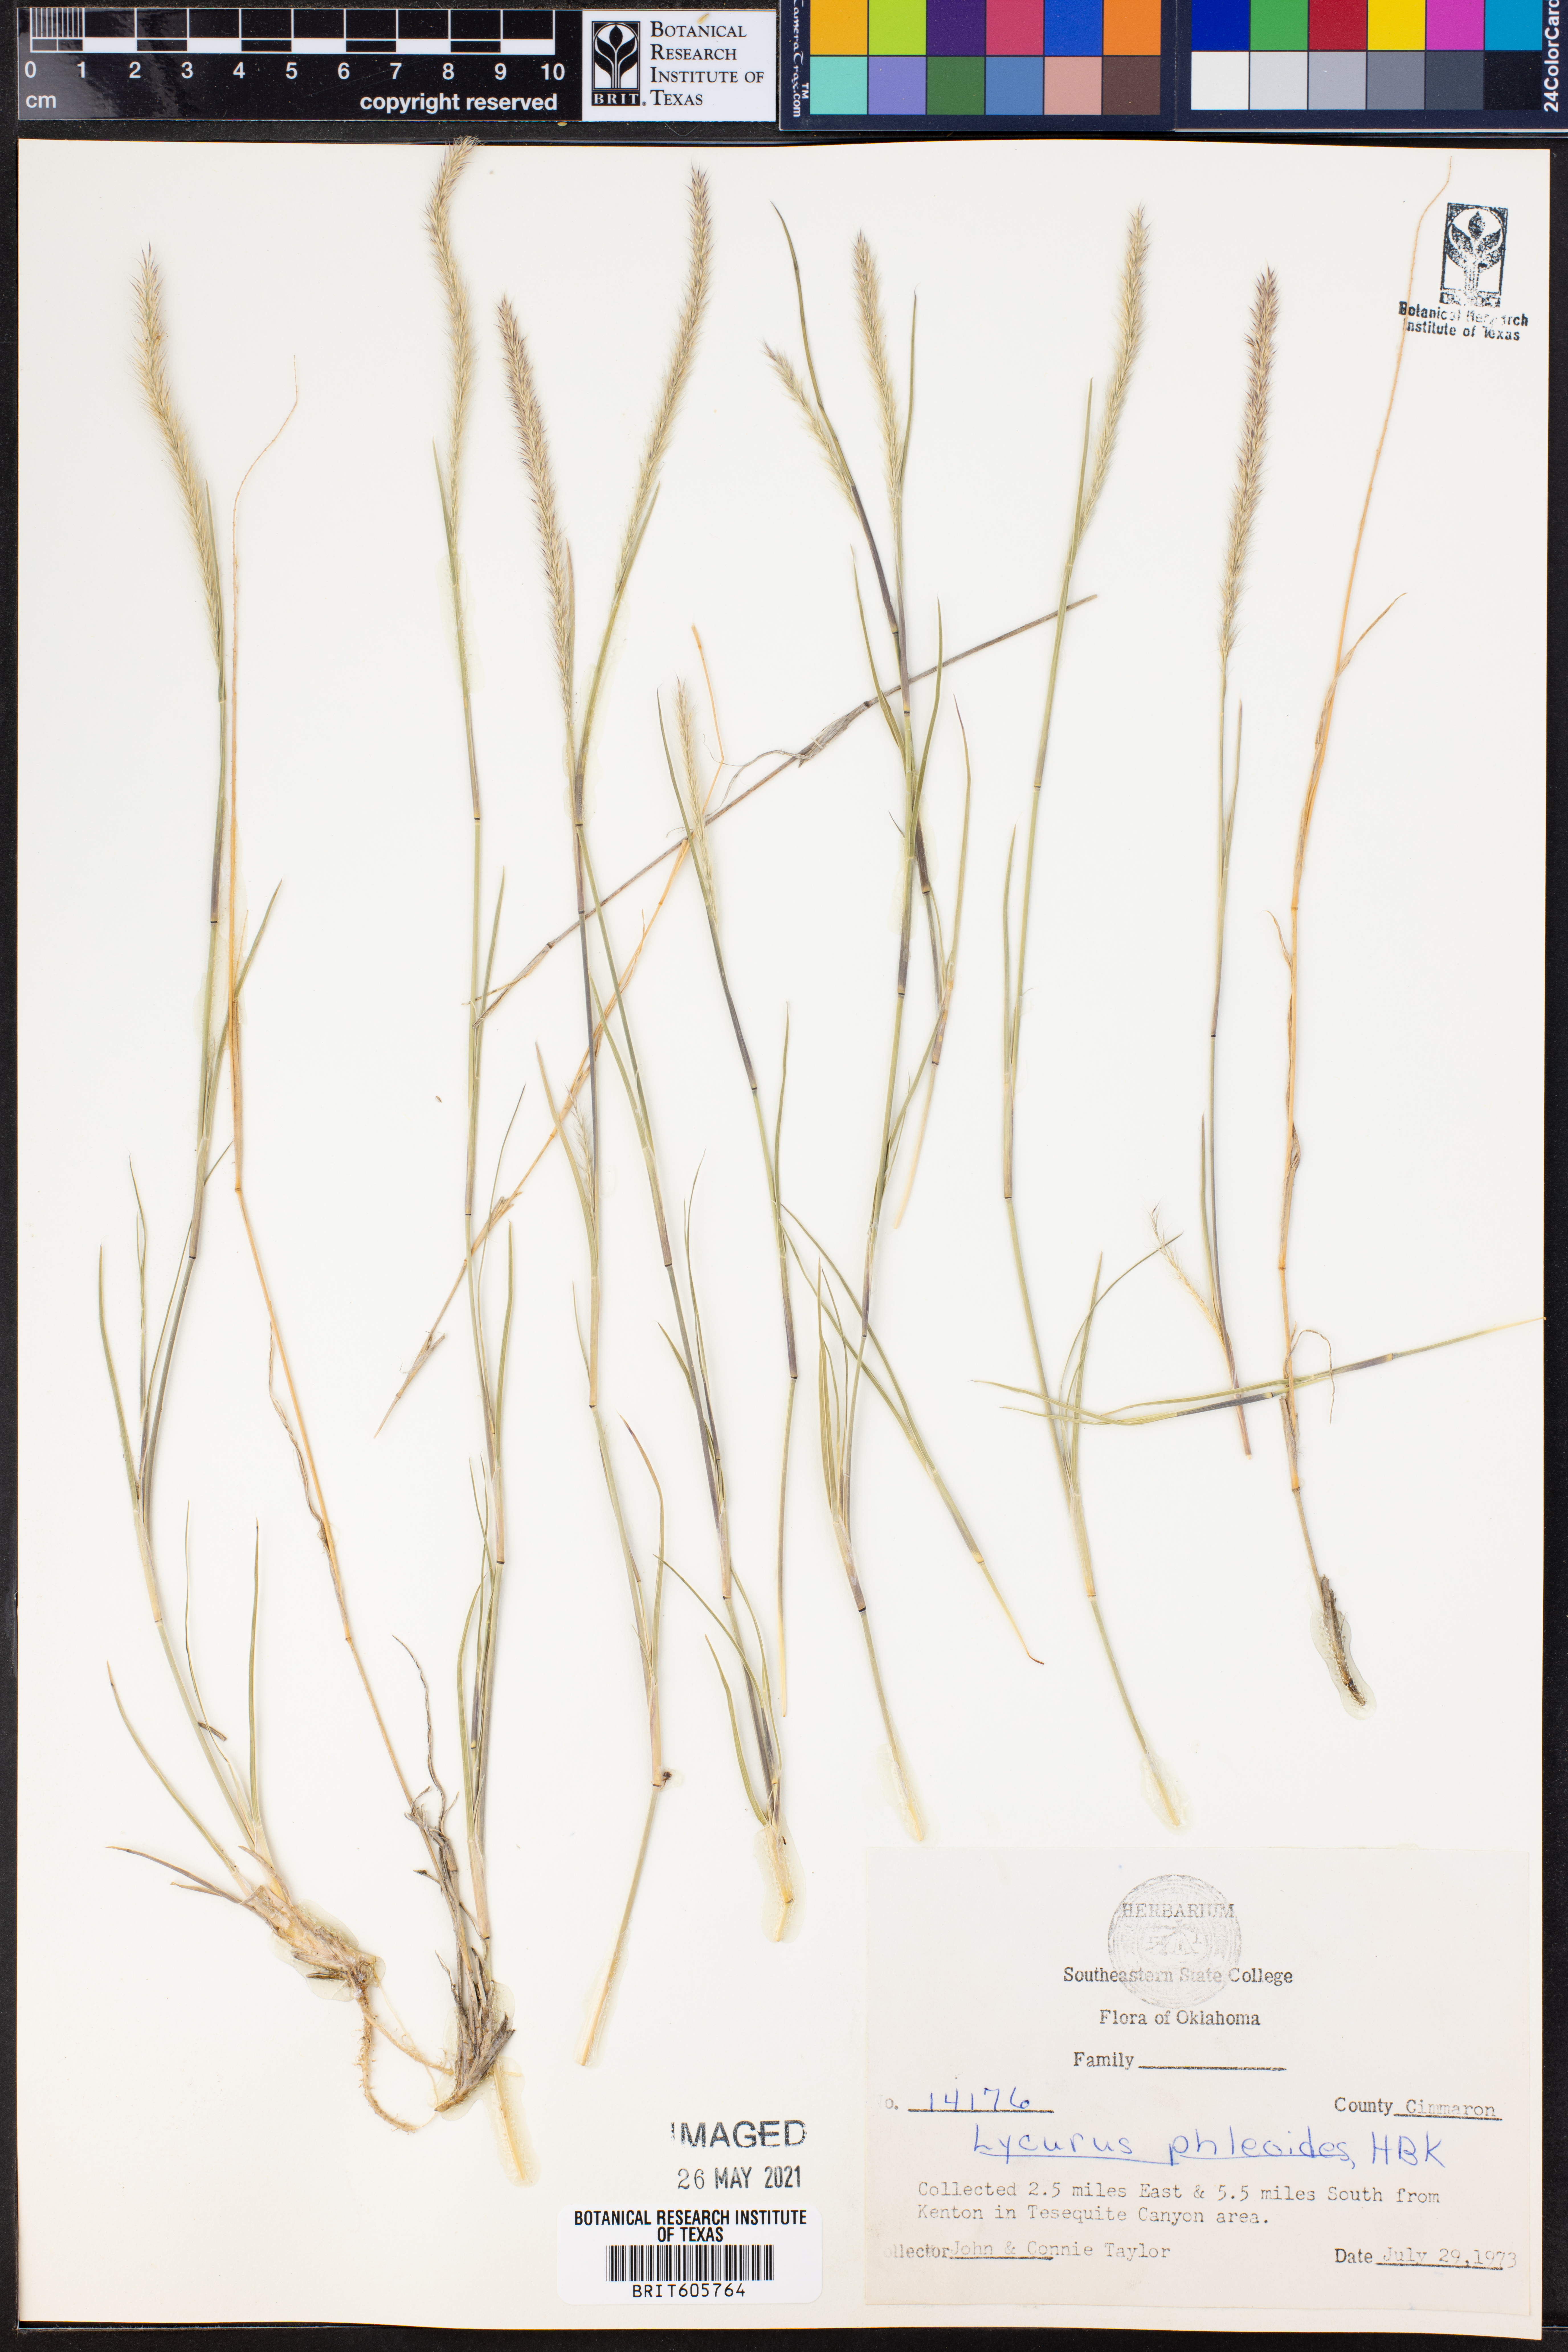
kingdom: Plantae
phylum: Tracheophyta
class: Liliopsida
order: Poales
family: Poaceae
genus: Muhlenbergia
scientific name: Muhlenbergia phleoides
